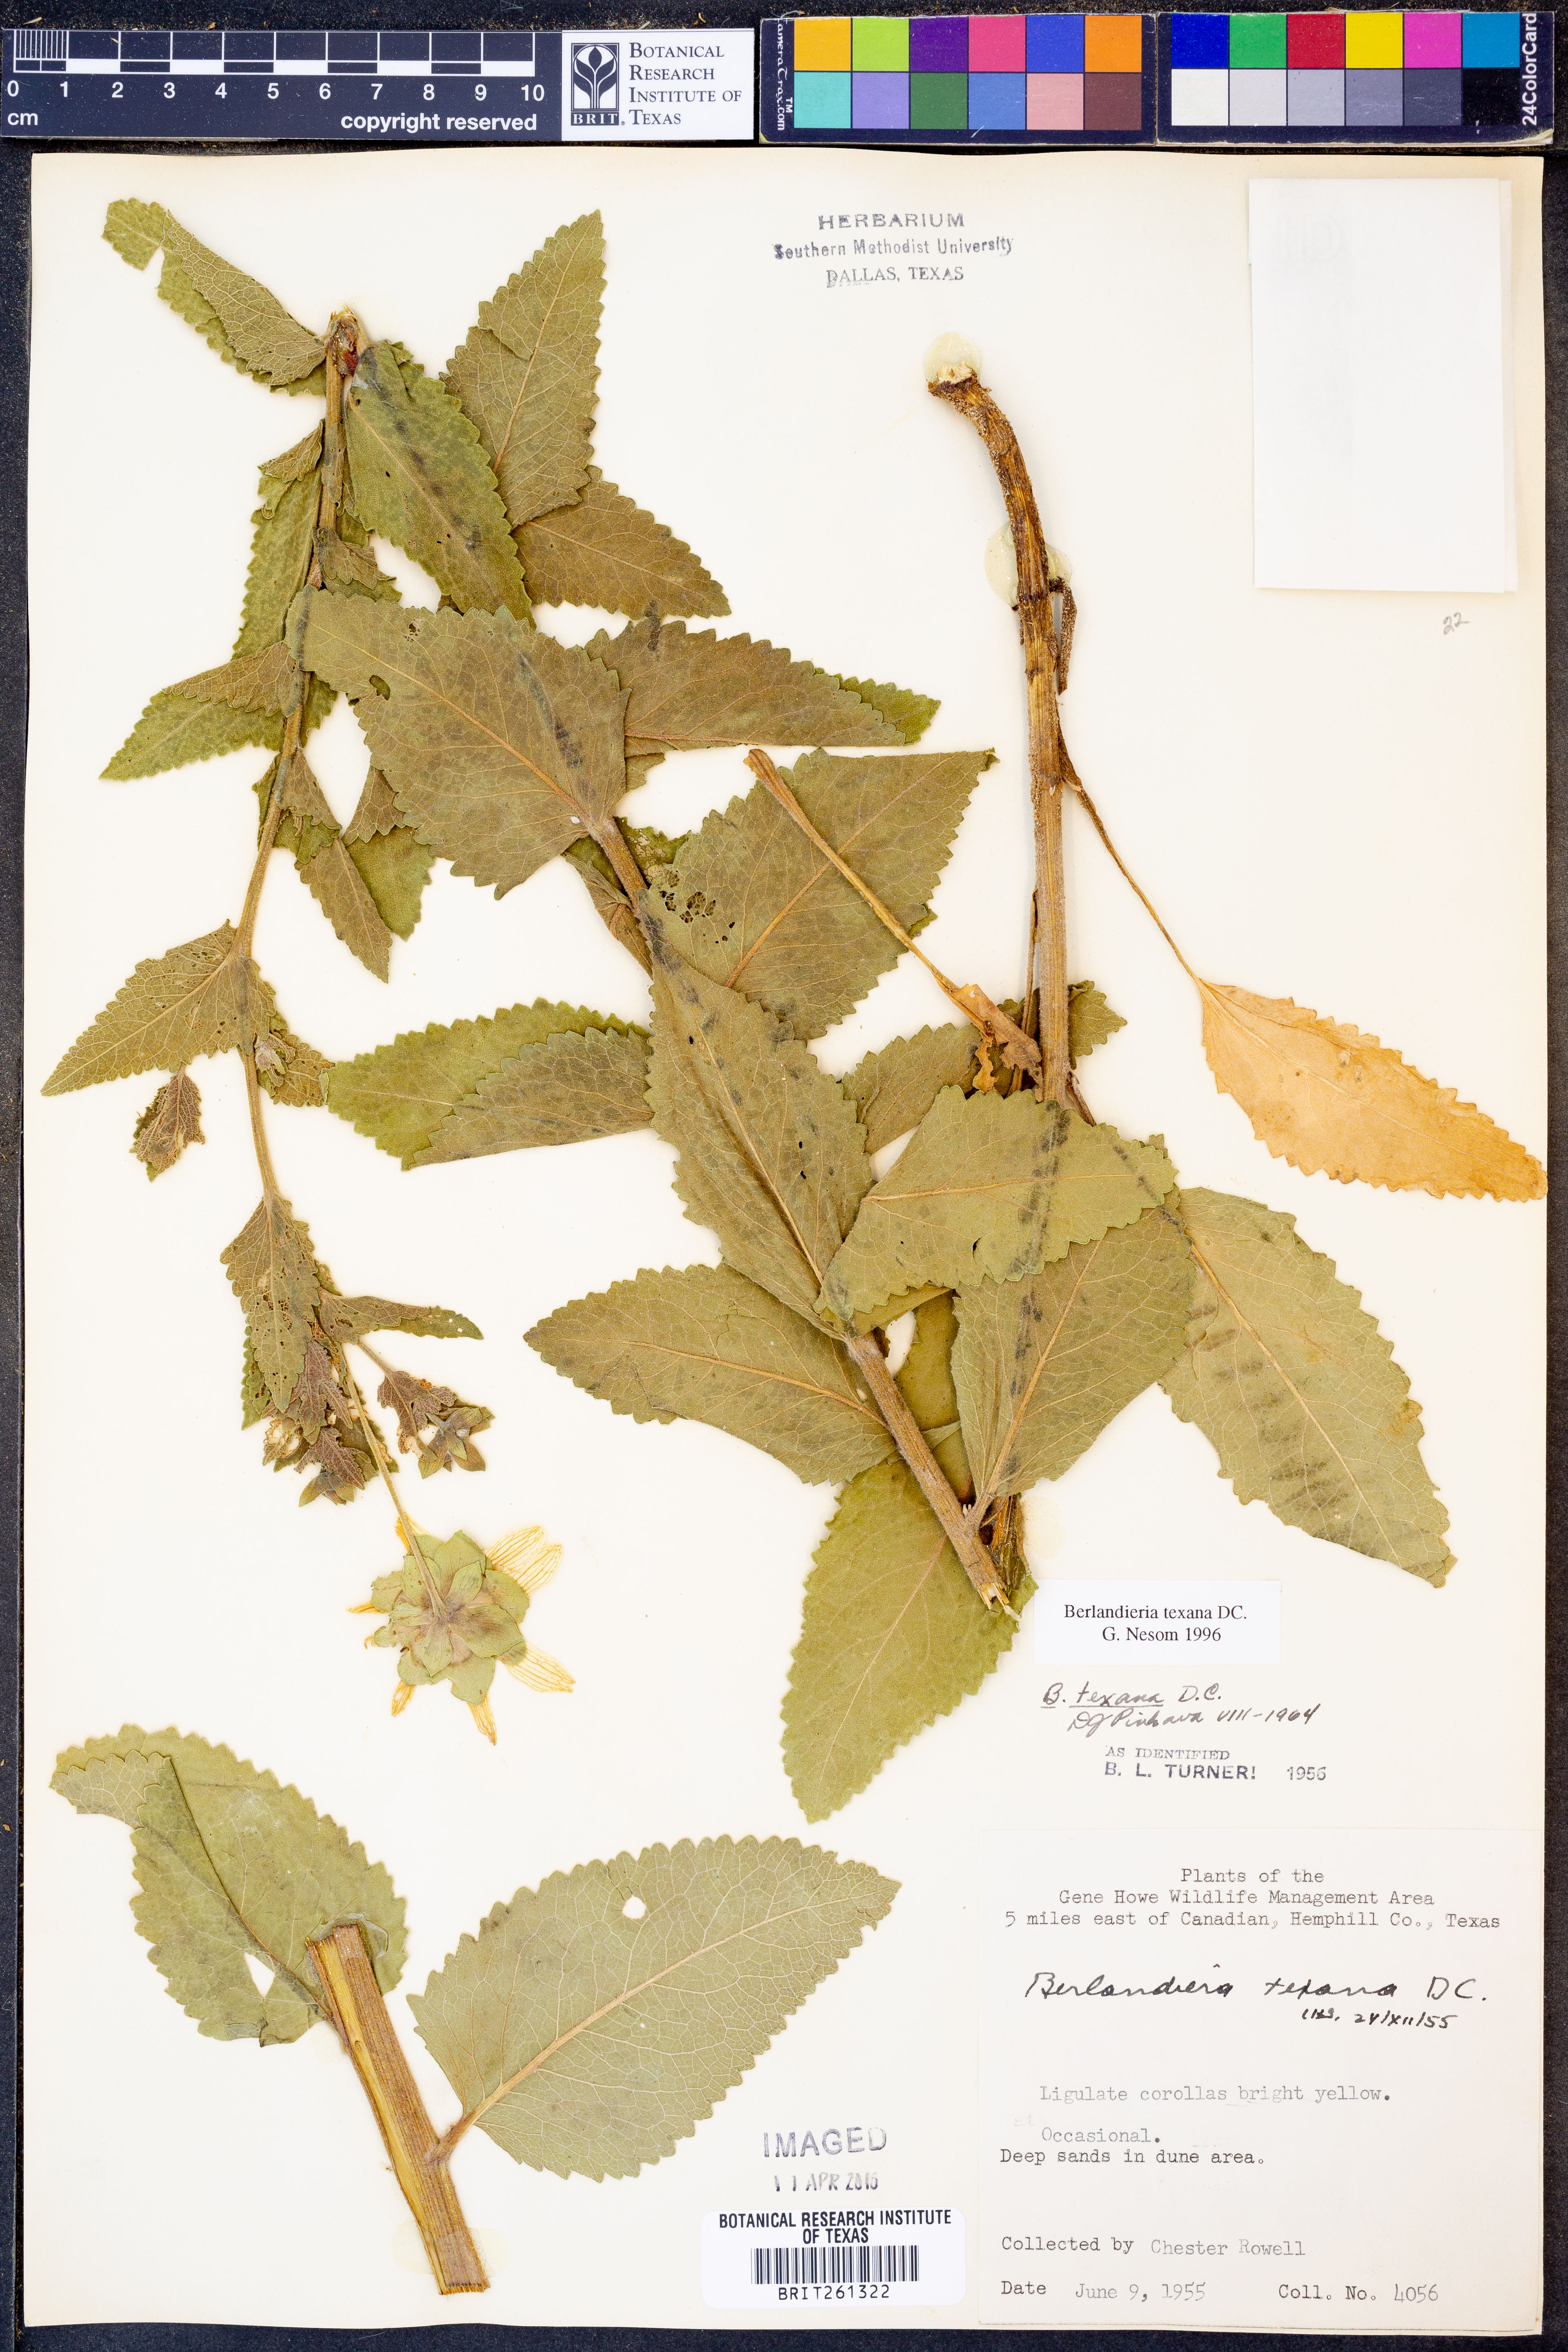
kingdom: Plantae
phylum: Tracheophyta
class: Magnoliopsida
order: Asterales
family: Asteraceae
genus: Berlandiera
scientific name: Berlandiera texana
